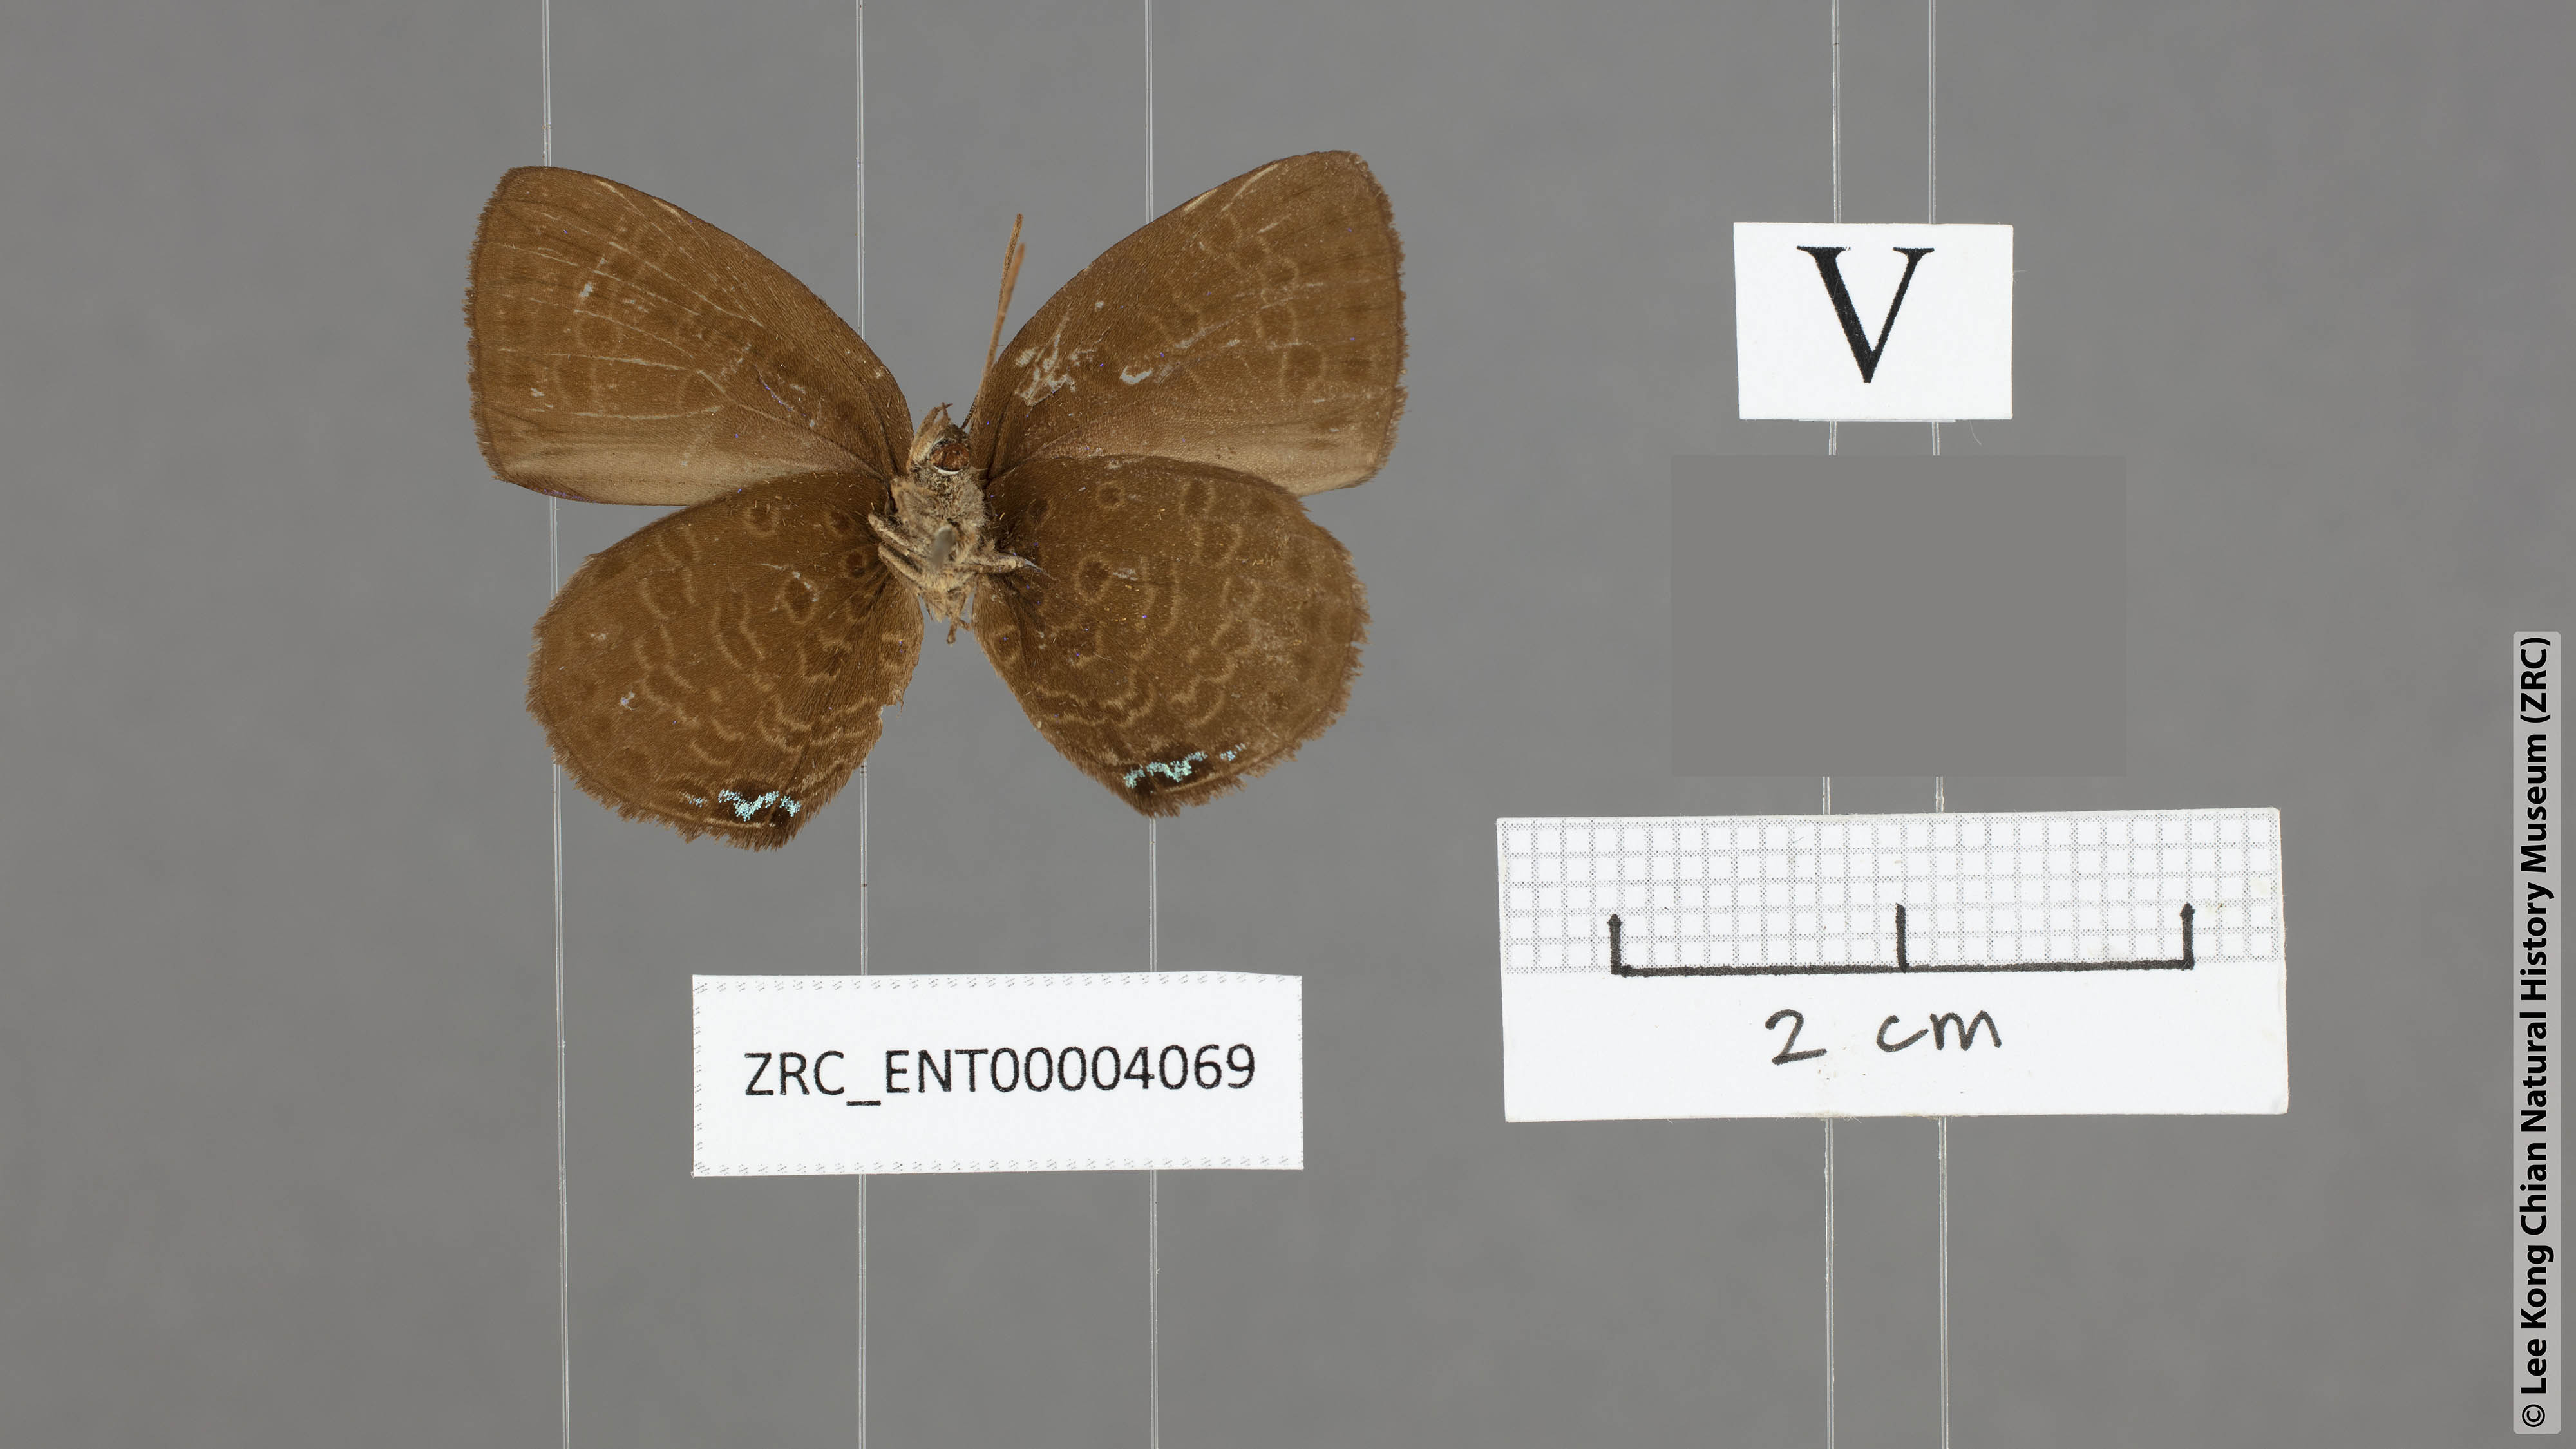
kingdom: Animalia
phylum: Arthropoda
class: Insecta
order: Lepidoptera
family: Lycaenidae
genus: Arhopala
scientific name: Arhopala zylda
